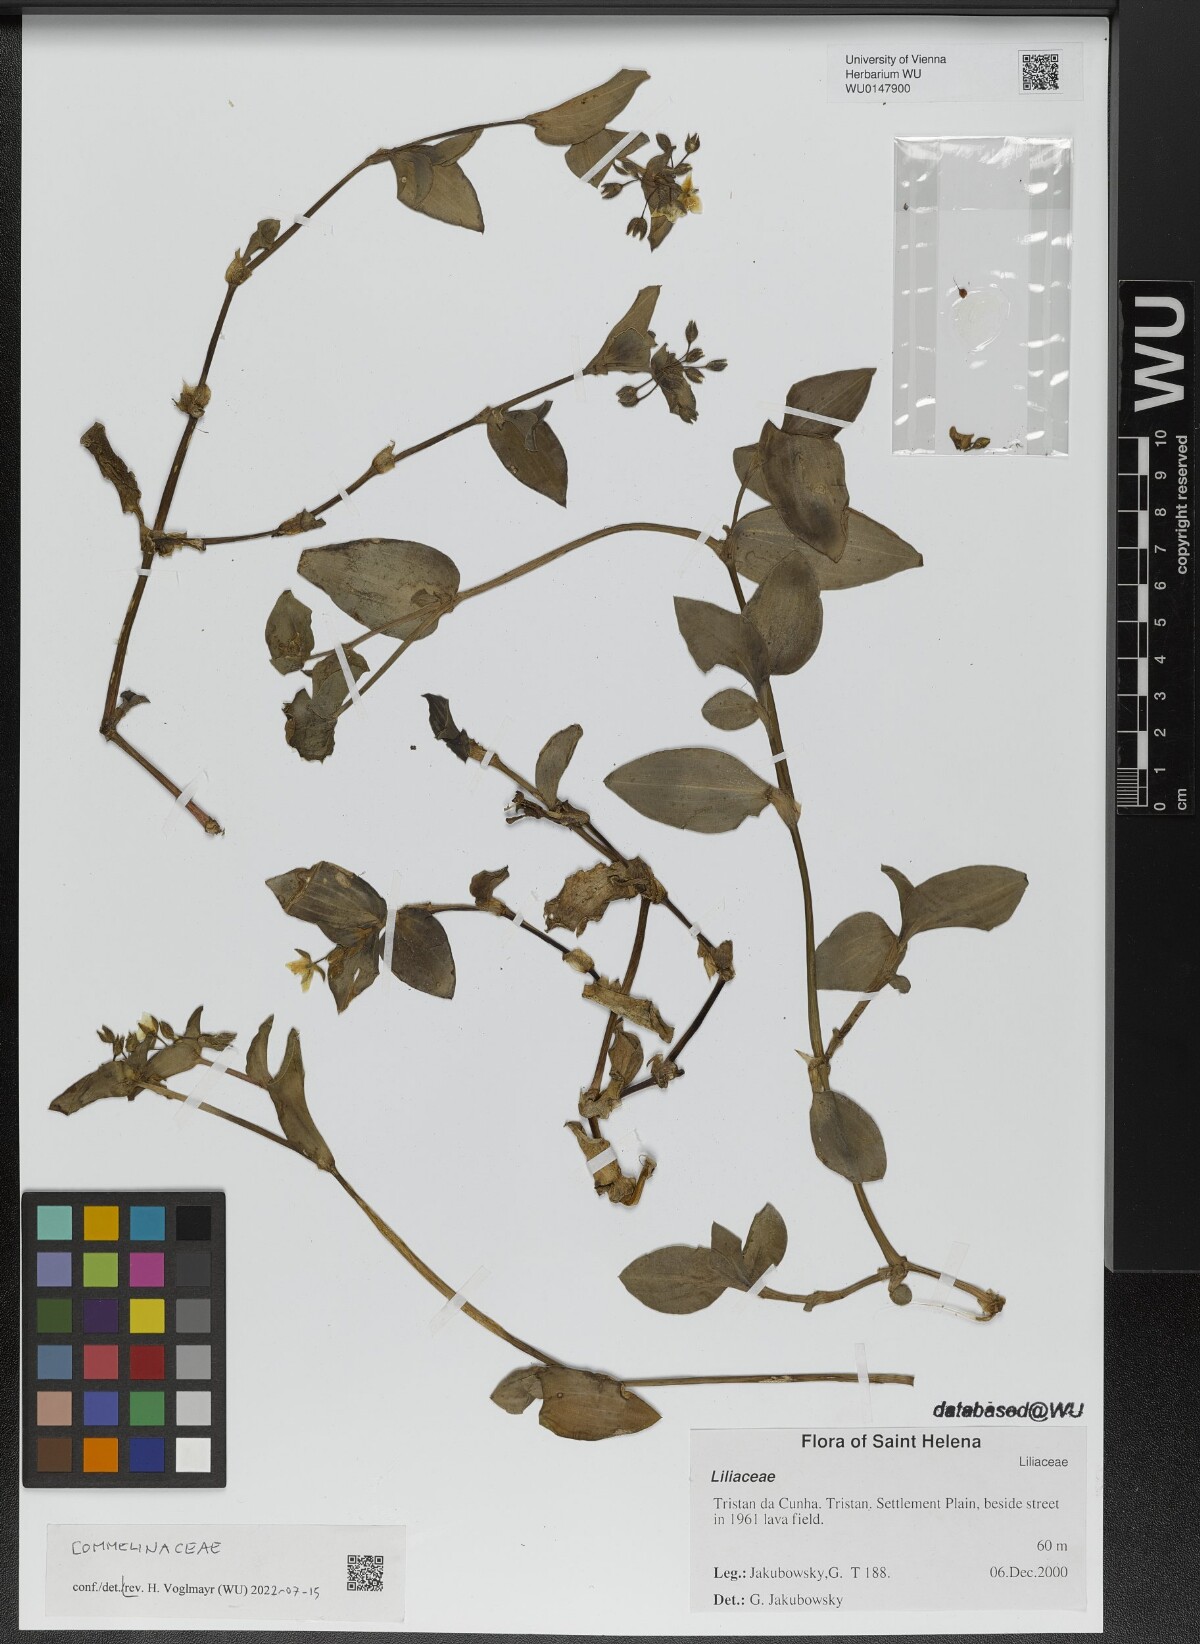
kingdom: Plantae
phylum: Tracheophyta
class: Liliopsida
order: Commelinales
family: Commelinaceae
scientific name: Commelinaceae
